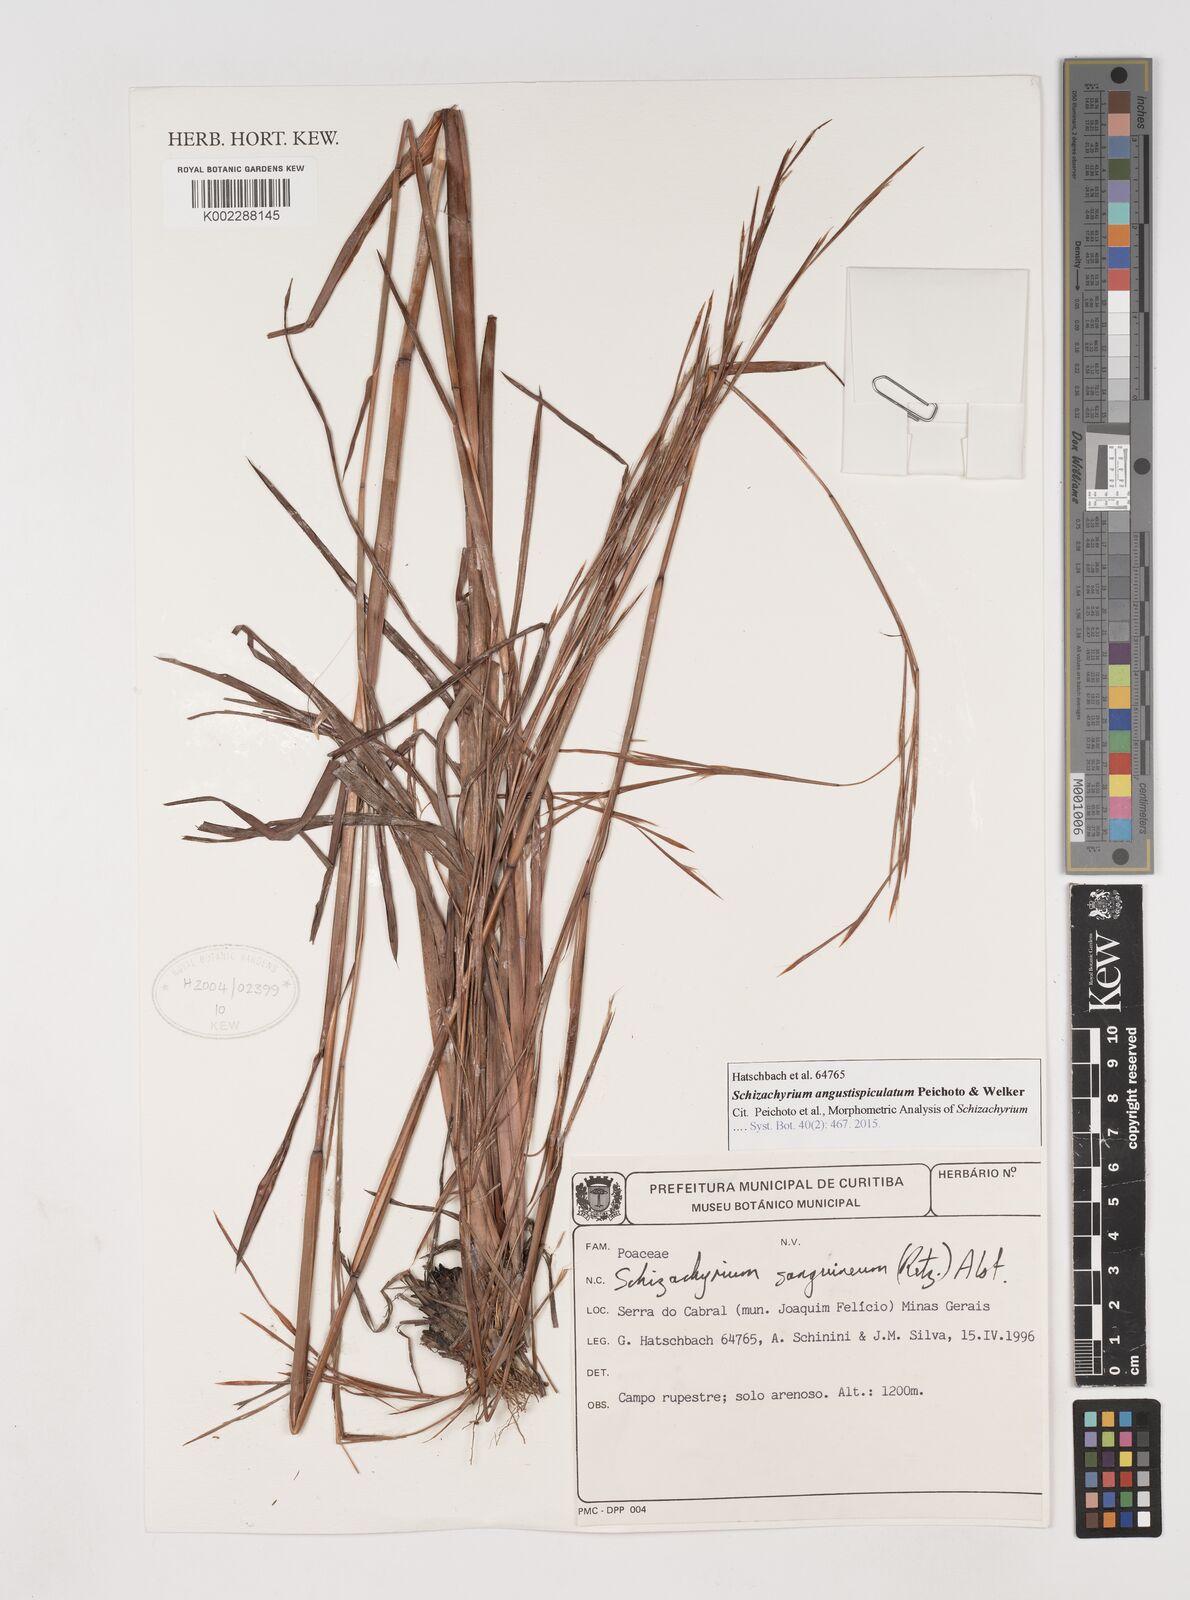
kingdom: Plantae
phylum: Tracheophyta
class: Liliopsida
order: Poales
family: Poaceae
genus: Schizachyrium
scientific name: Schizachyrium angustispiculatum
